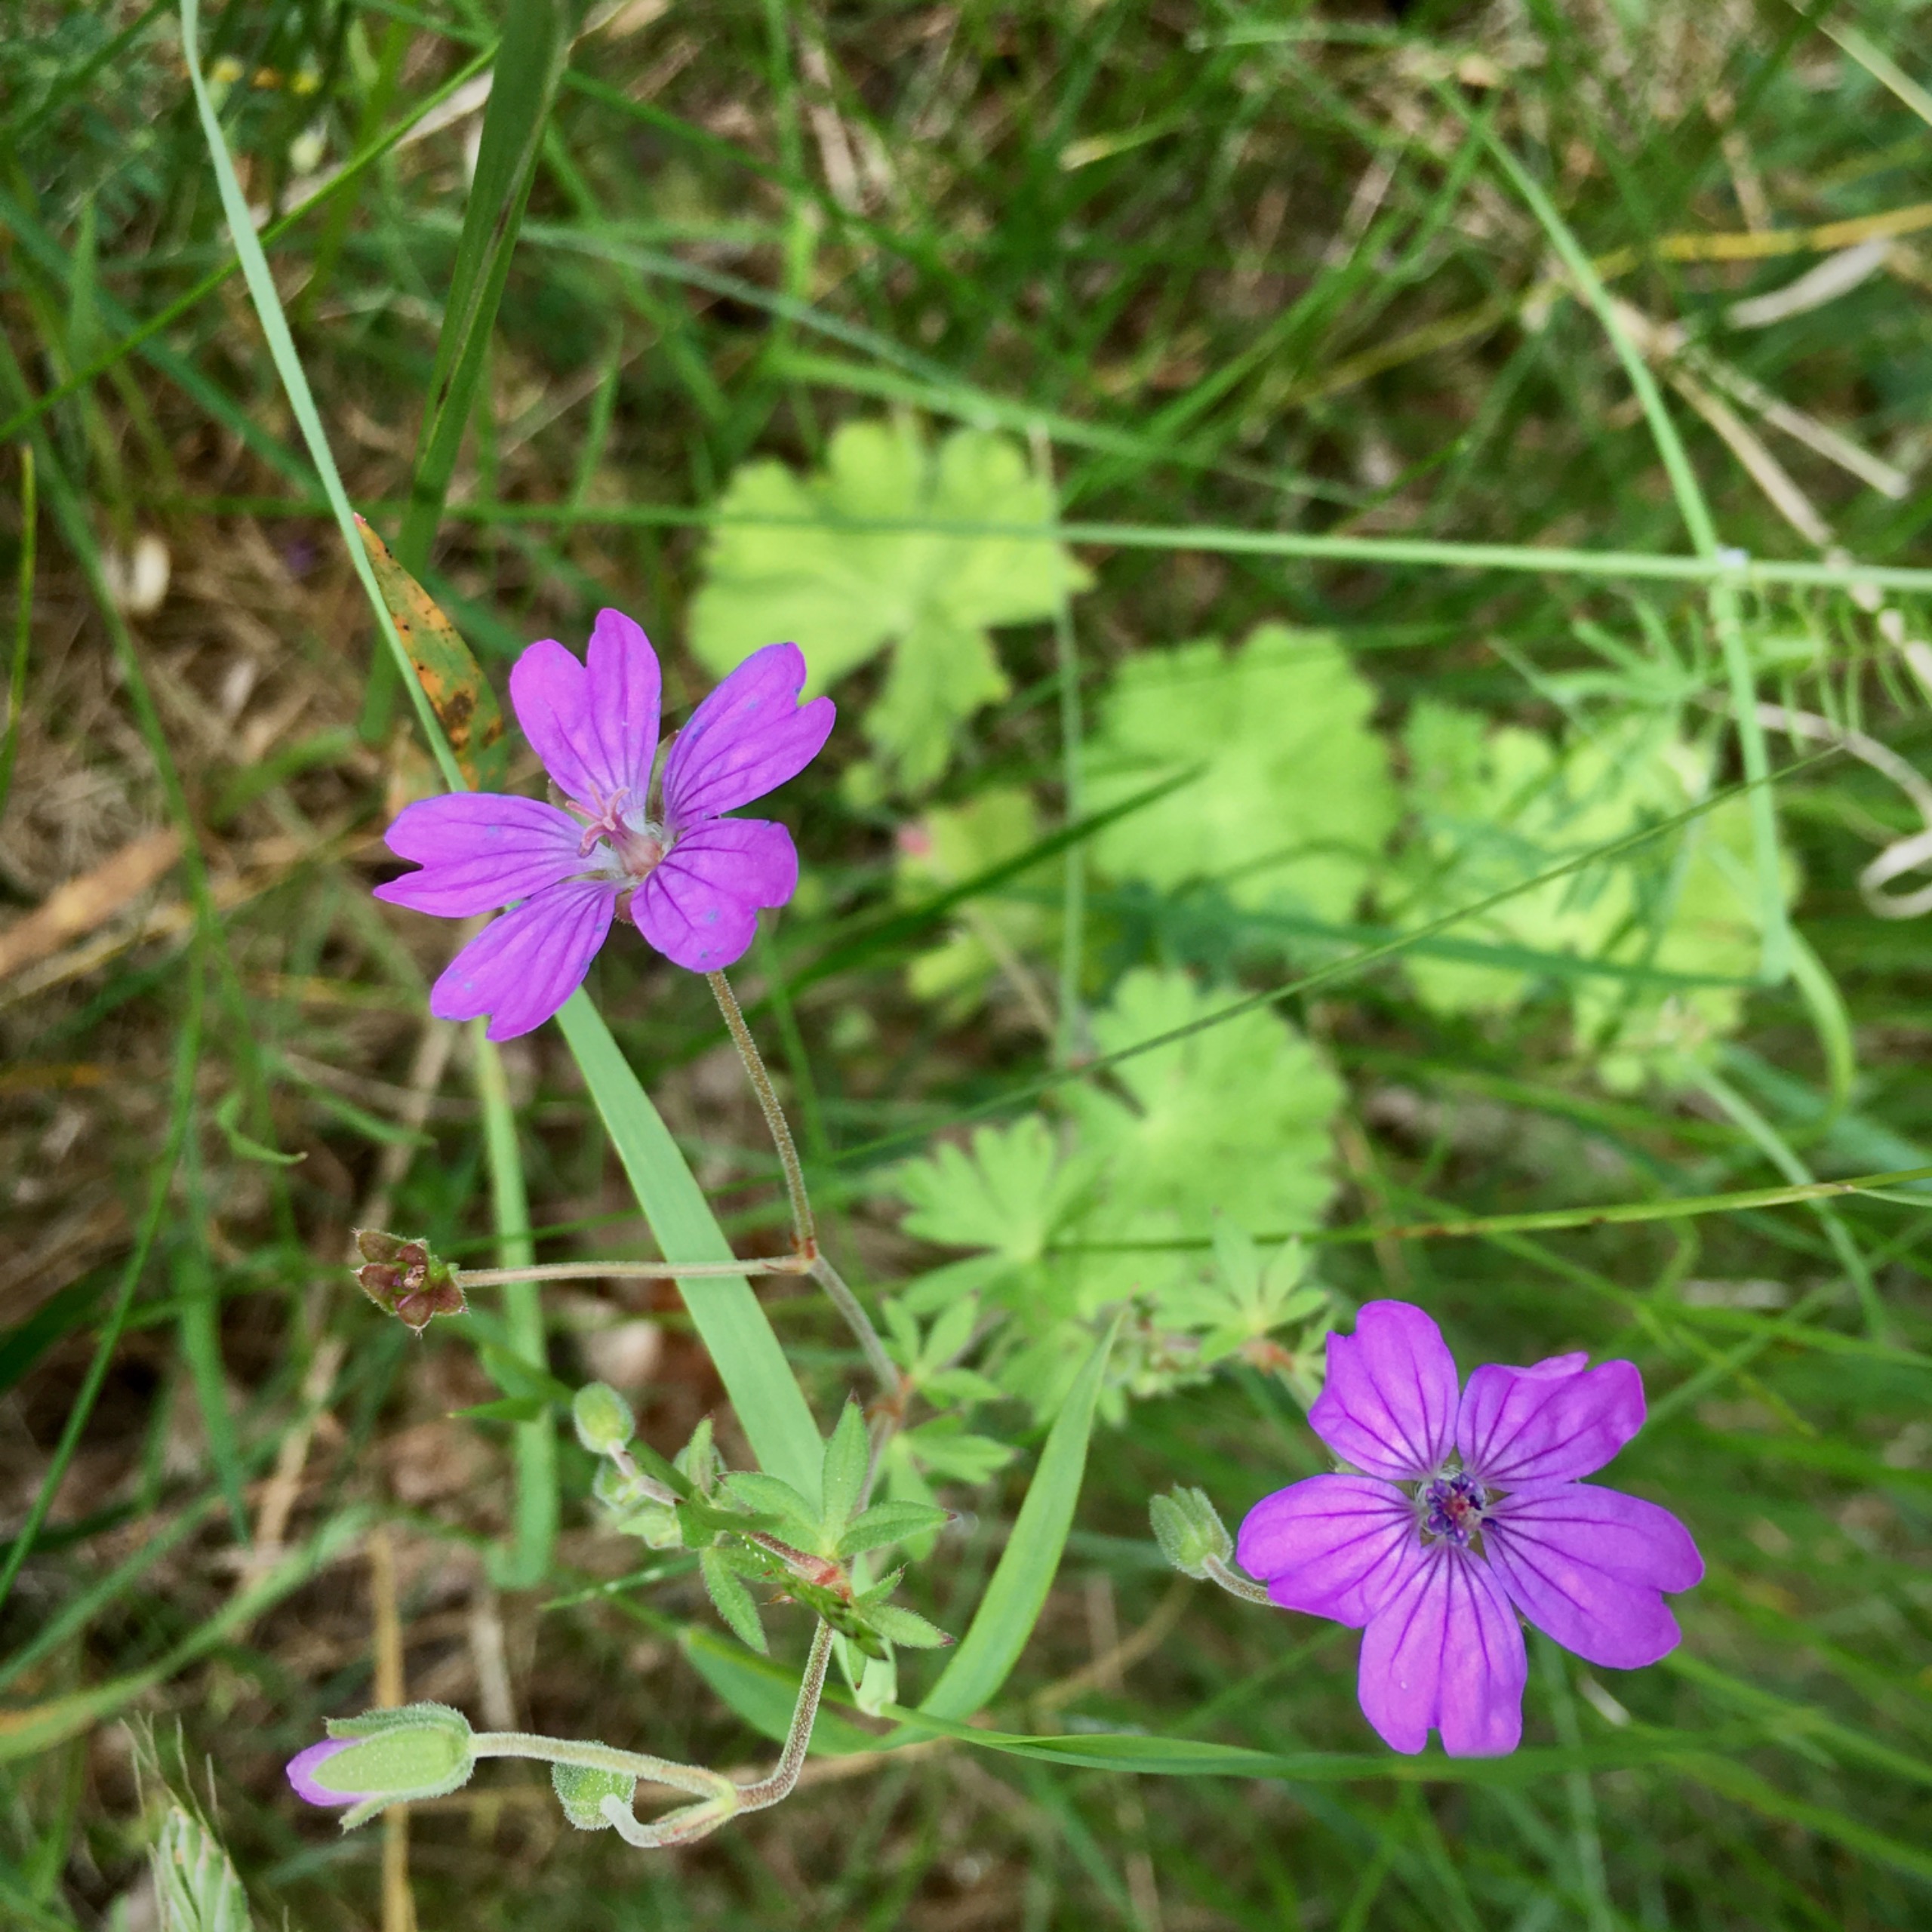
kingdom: Plantae
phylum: Tracheophyta
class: Magnoliopsida
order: Geraniales
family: Geraniaceae
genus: Geranium
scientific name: Geranium pyrenaicum
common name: Pyrenæisk storkenæb
